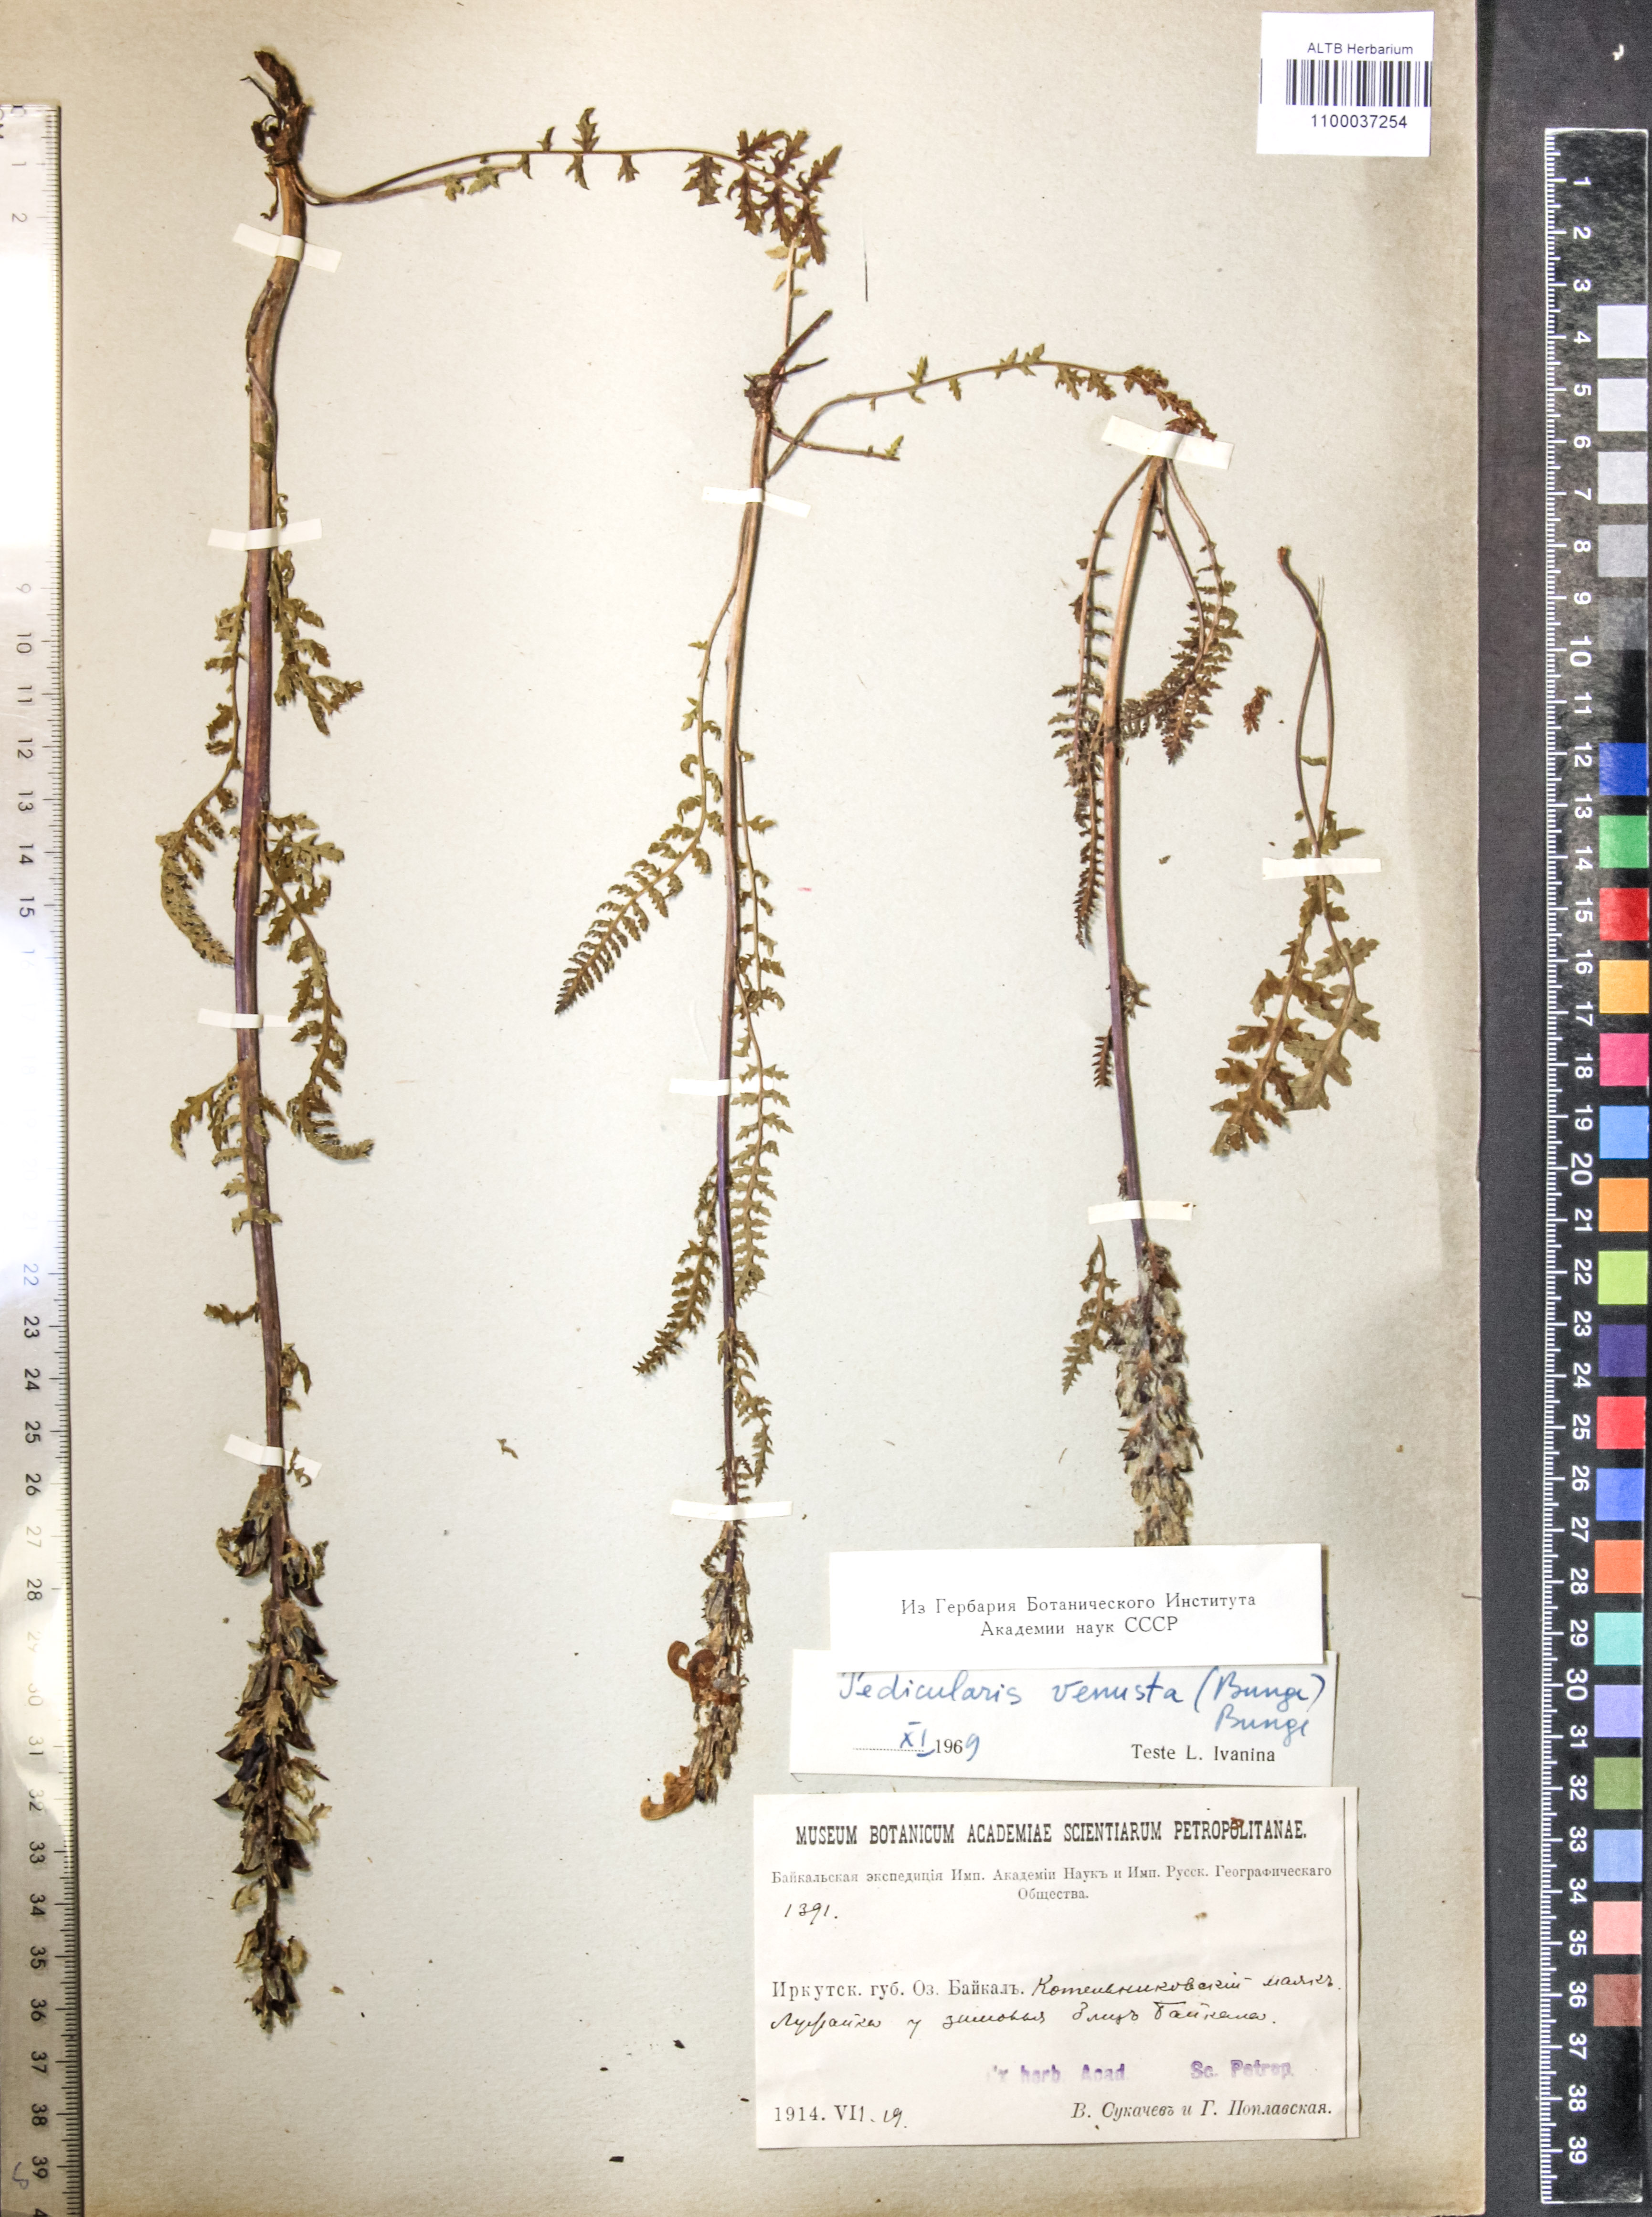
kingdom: Plantae
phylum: Tracheophyta
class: Magnoliopsida
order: Lamiales
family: Orobanchaceae
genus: Pedicularis
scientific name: Pedicularis venusta
